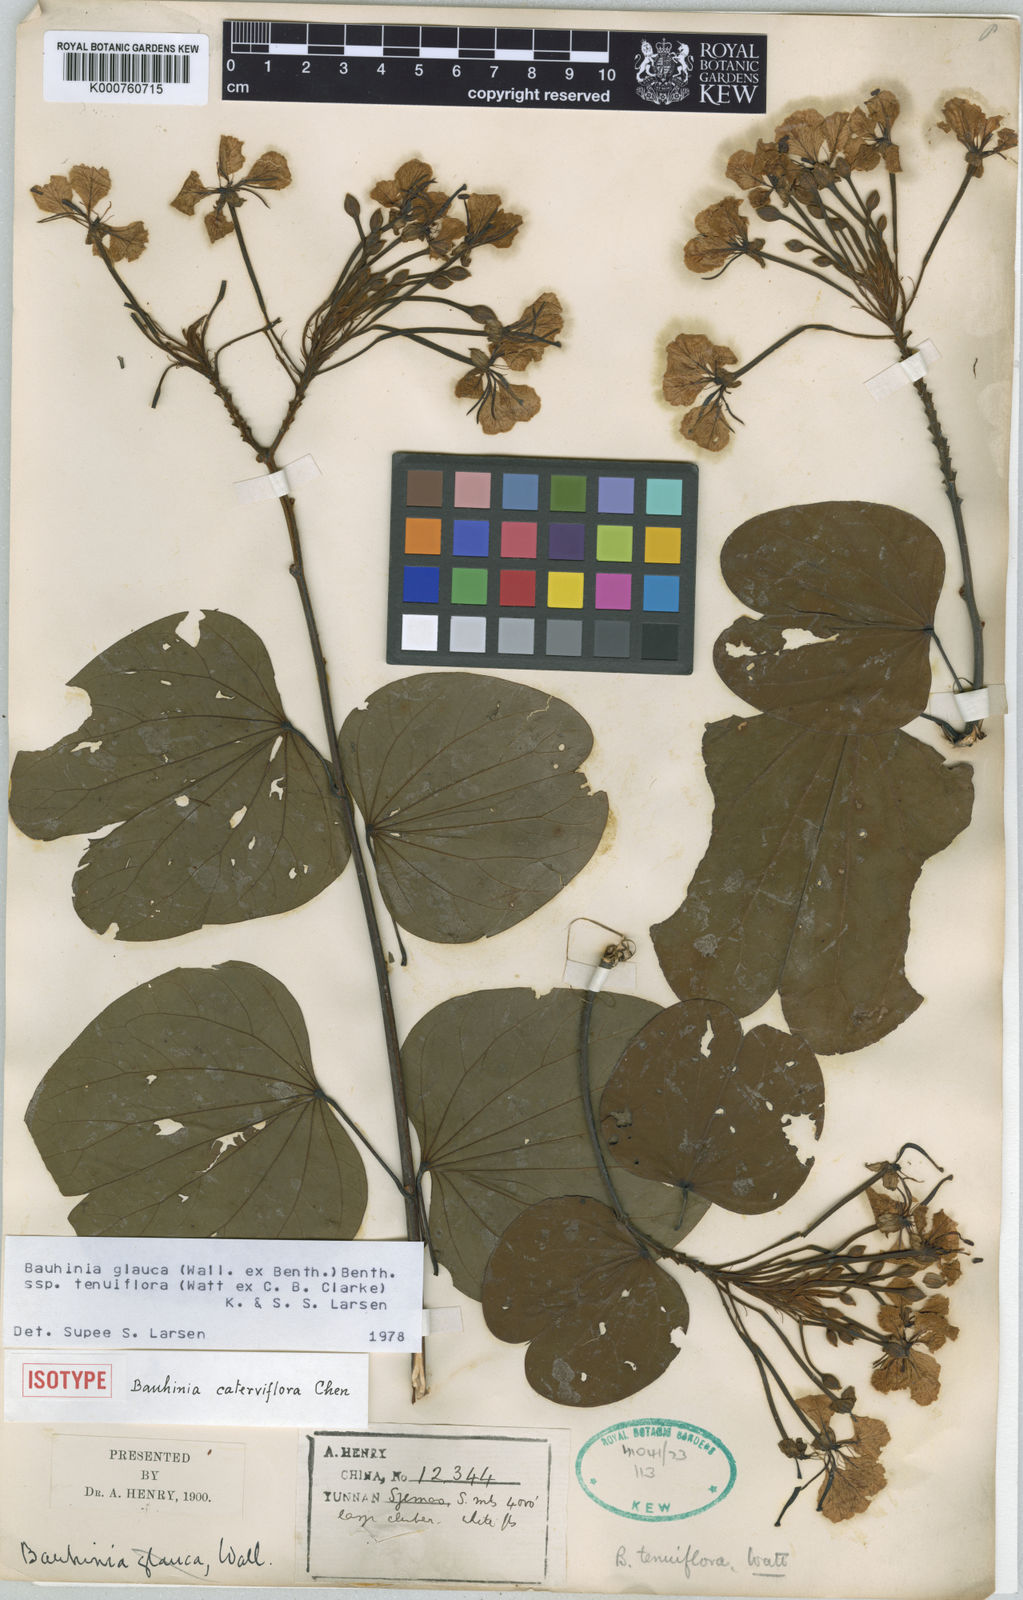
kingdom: Plantae
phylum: Tracheophyta
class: Magnoliopsida
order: Fabales
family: Fabaceae
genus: Cheniella
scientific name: Cheniella tenuiflora
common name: Bauhinia
